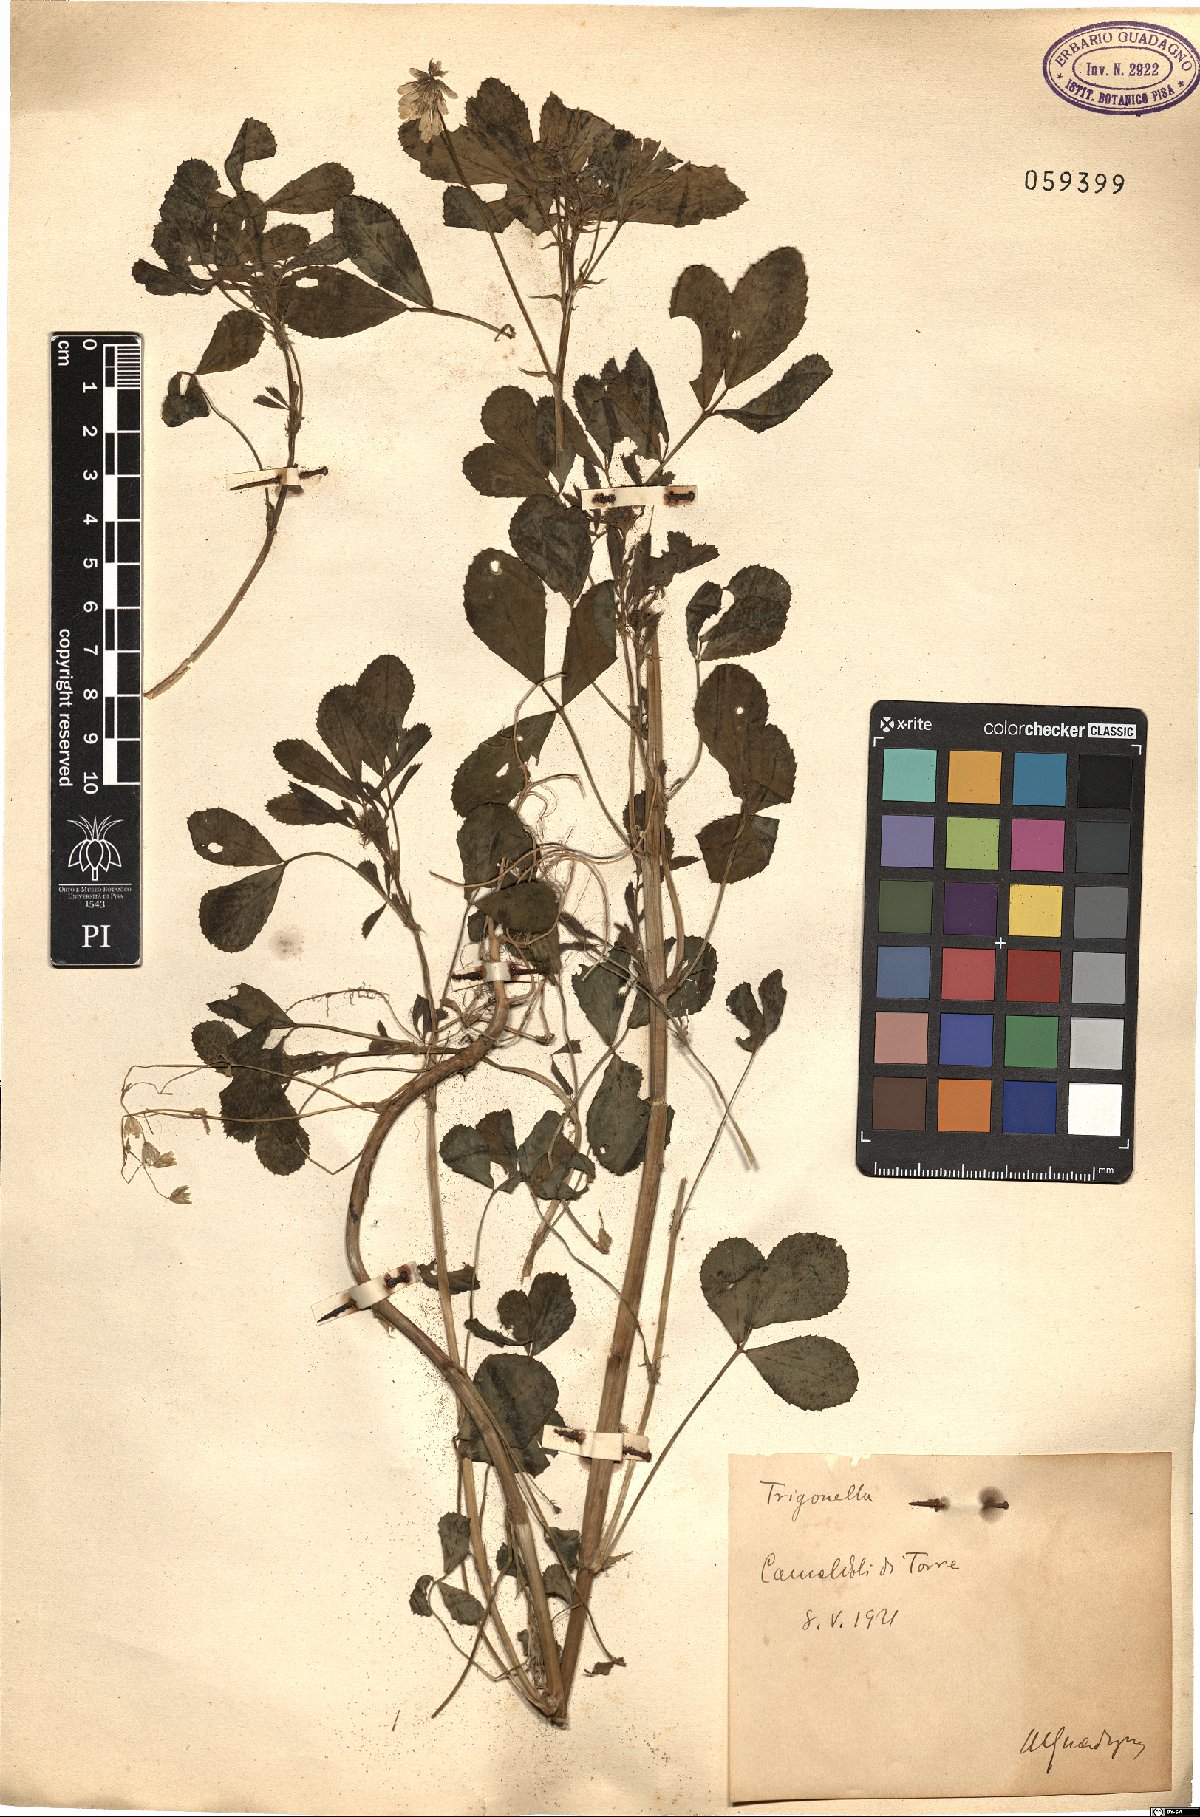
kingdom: Plantae
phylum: Tracheophyta
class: Magnoliopsida
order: Fabales
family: Fabaceae
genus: Trigonella
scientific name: Trigonella
